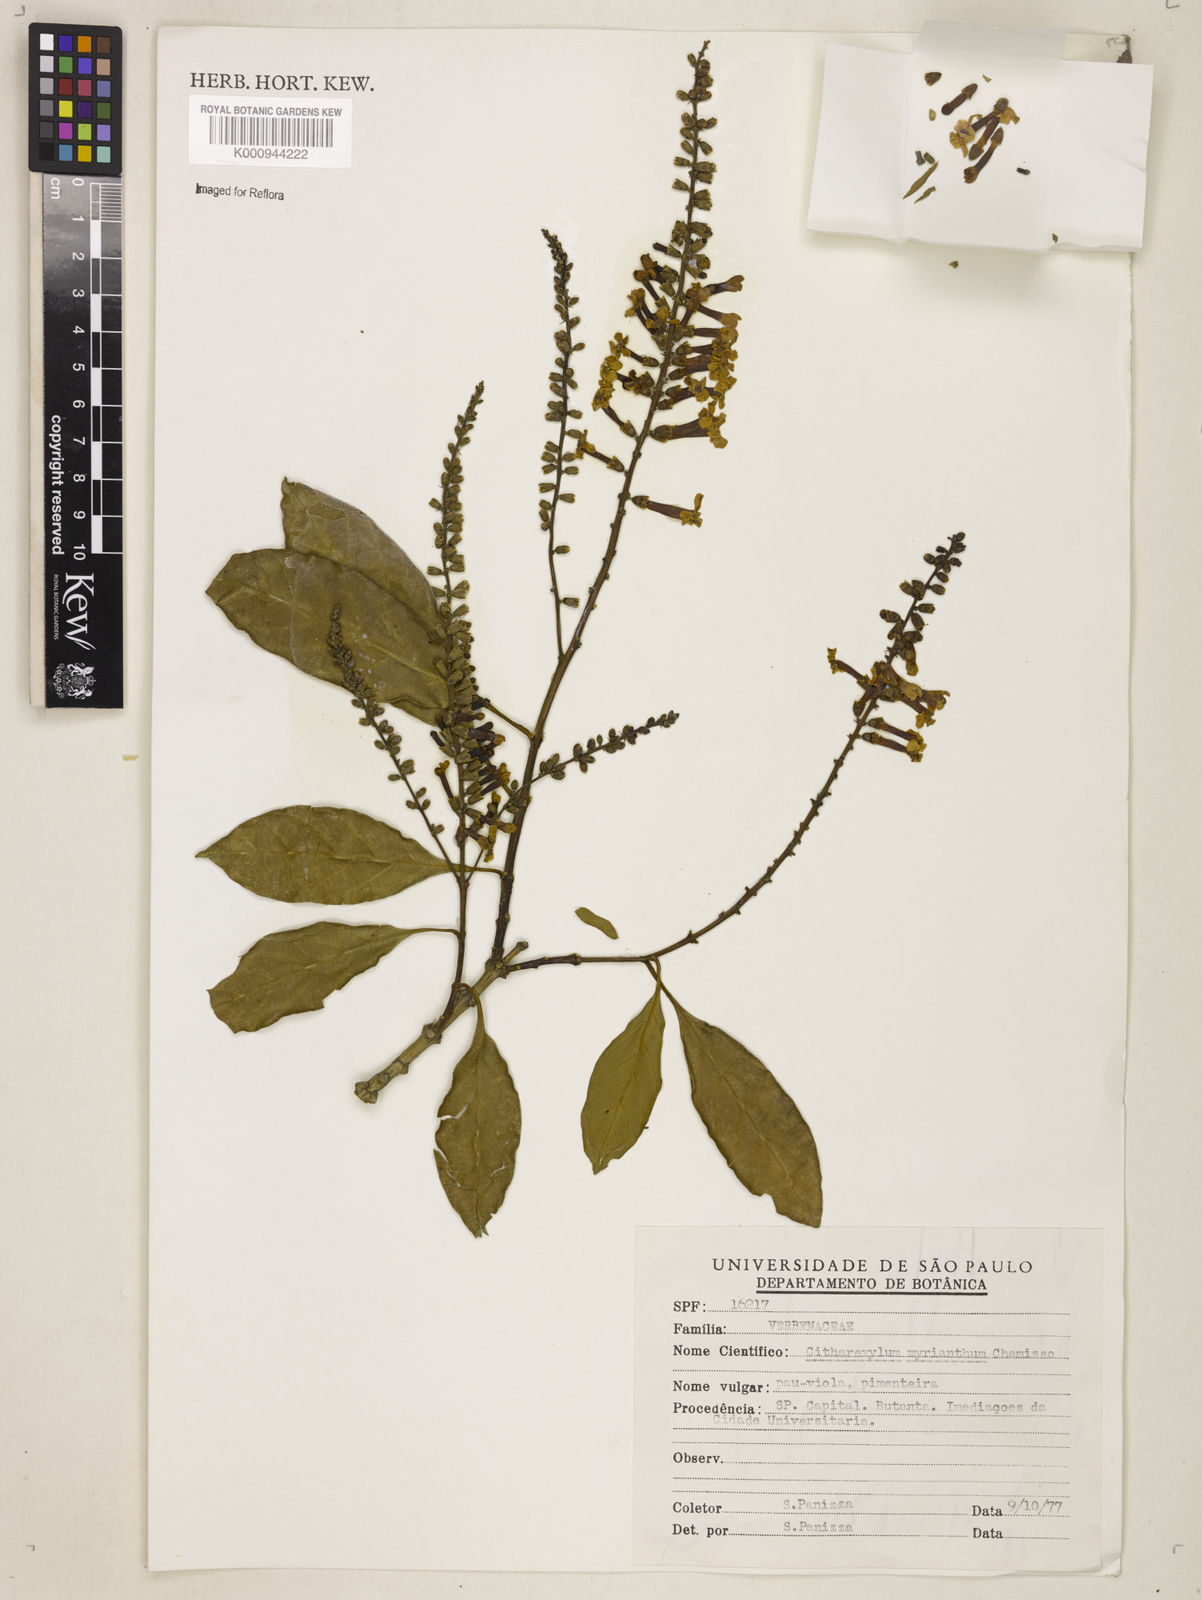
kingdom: Plantae
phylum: Tracheophyta
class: Magnoliopsida
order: Lamiales
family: Verbenaceae
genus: Citharexylum
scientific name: Citharexylum myrianthum
